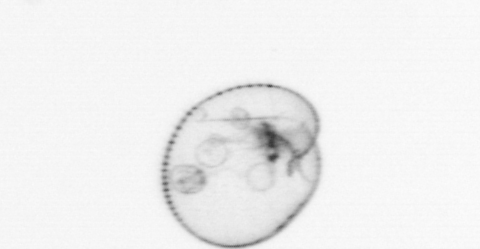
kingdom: Chromista
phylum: Myzozoa
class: Dinophyceae
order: Noctilucales
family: Noctilucaceae
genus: Noctiluca
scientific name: Noctiluca scintillans
